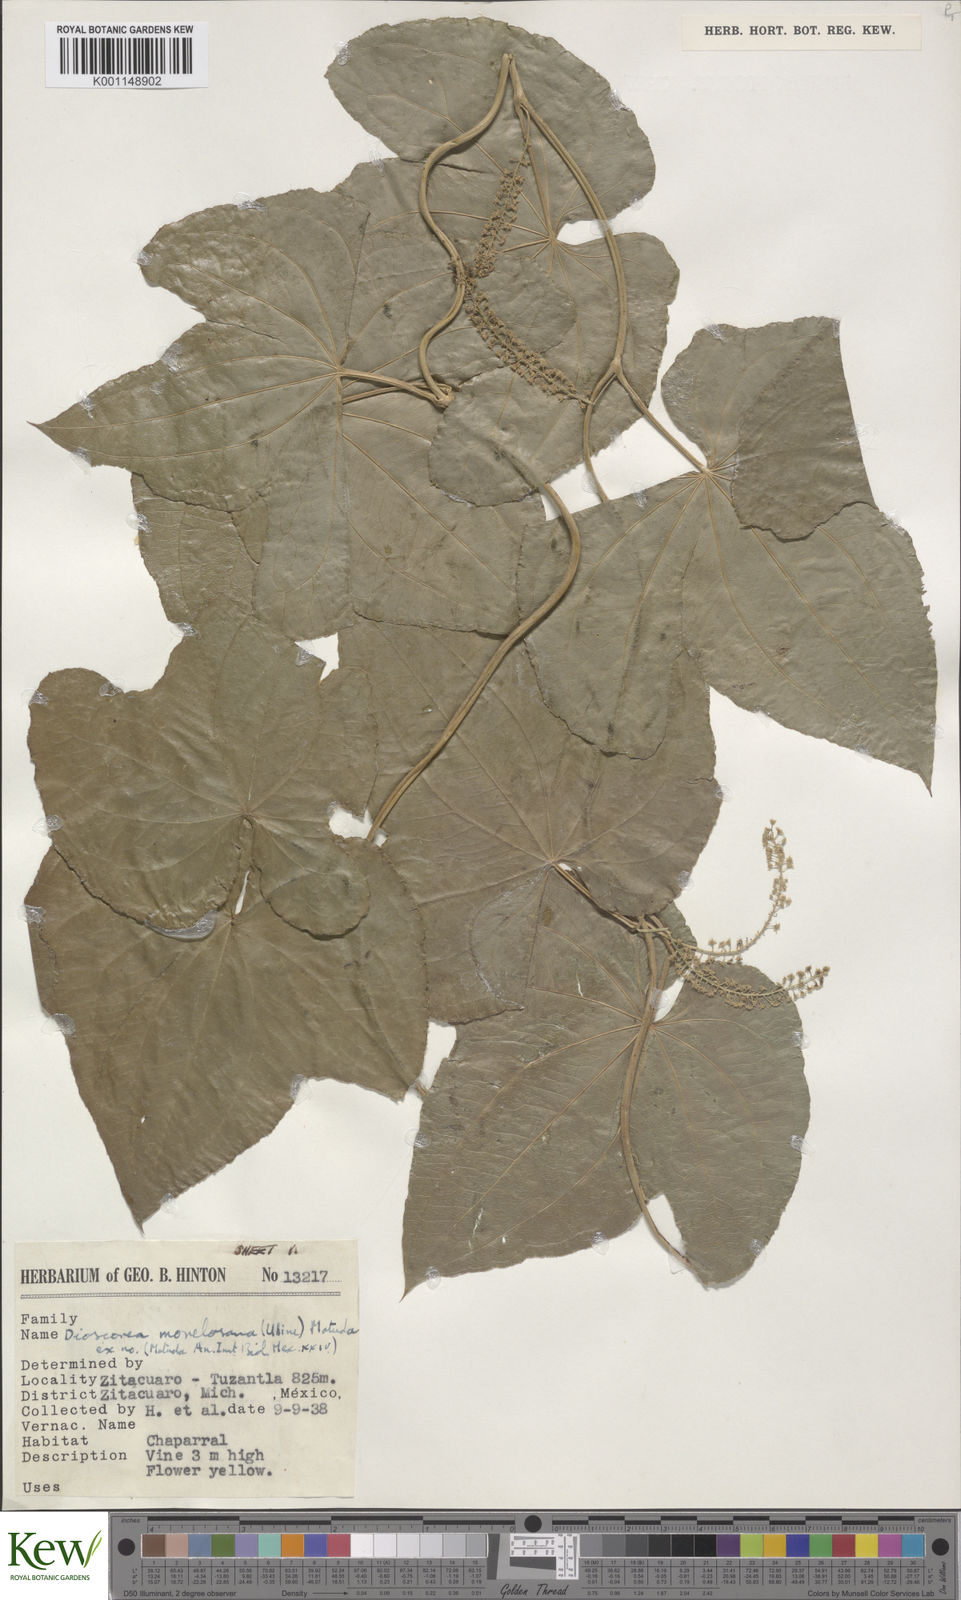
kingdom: Plantae
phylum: Tracheophyta
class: Liliopsida
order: Dioscoreales
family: Dioscoreaceae
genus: Dioscorea
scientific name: Dioscorea morelosana
